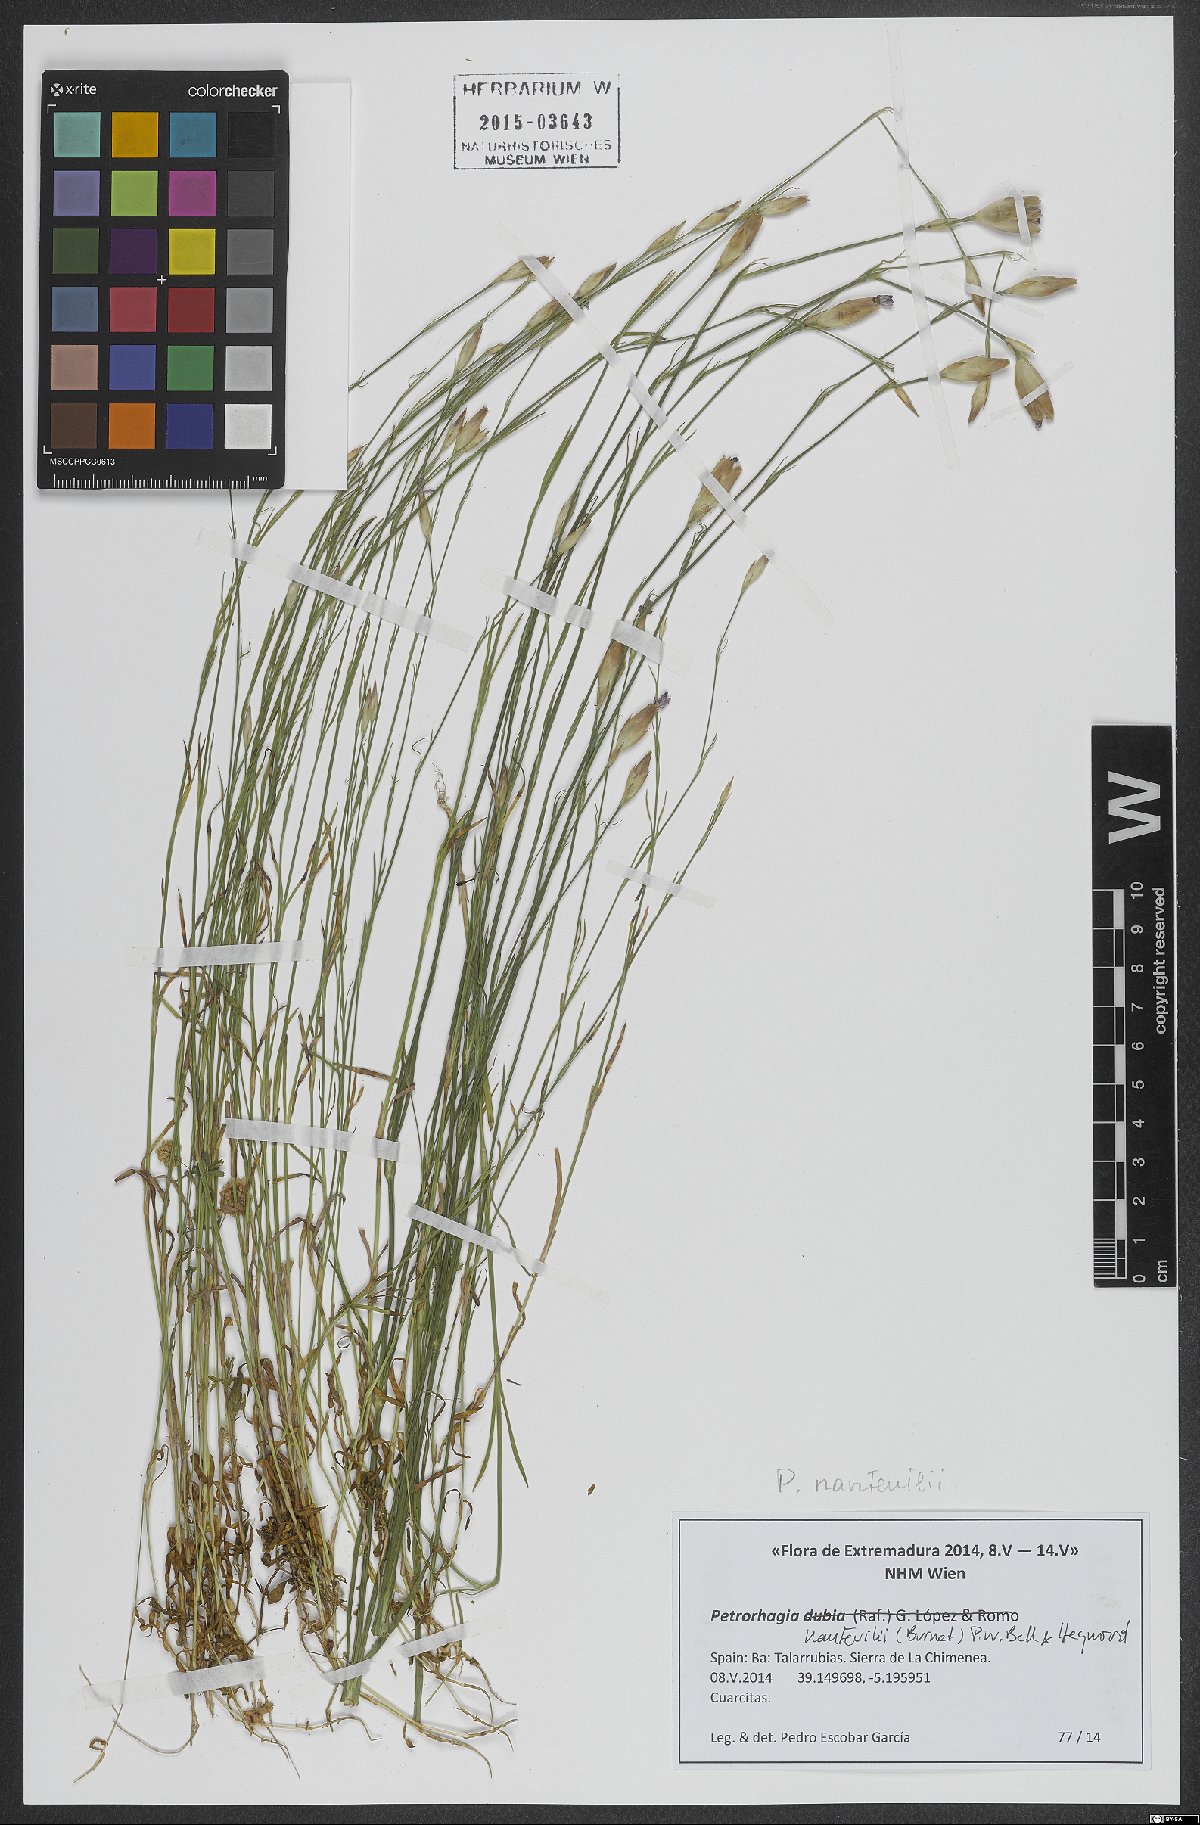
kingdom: Plantae
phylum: Tracheophyta
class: Magnoliopsida
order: Caryophyllales
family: Caryophyllaceae
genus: Petrorhagia
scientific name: Petrorhagia nanteuilii
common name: Proliferous pink
